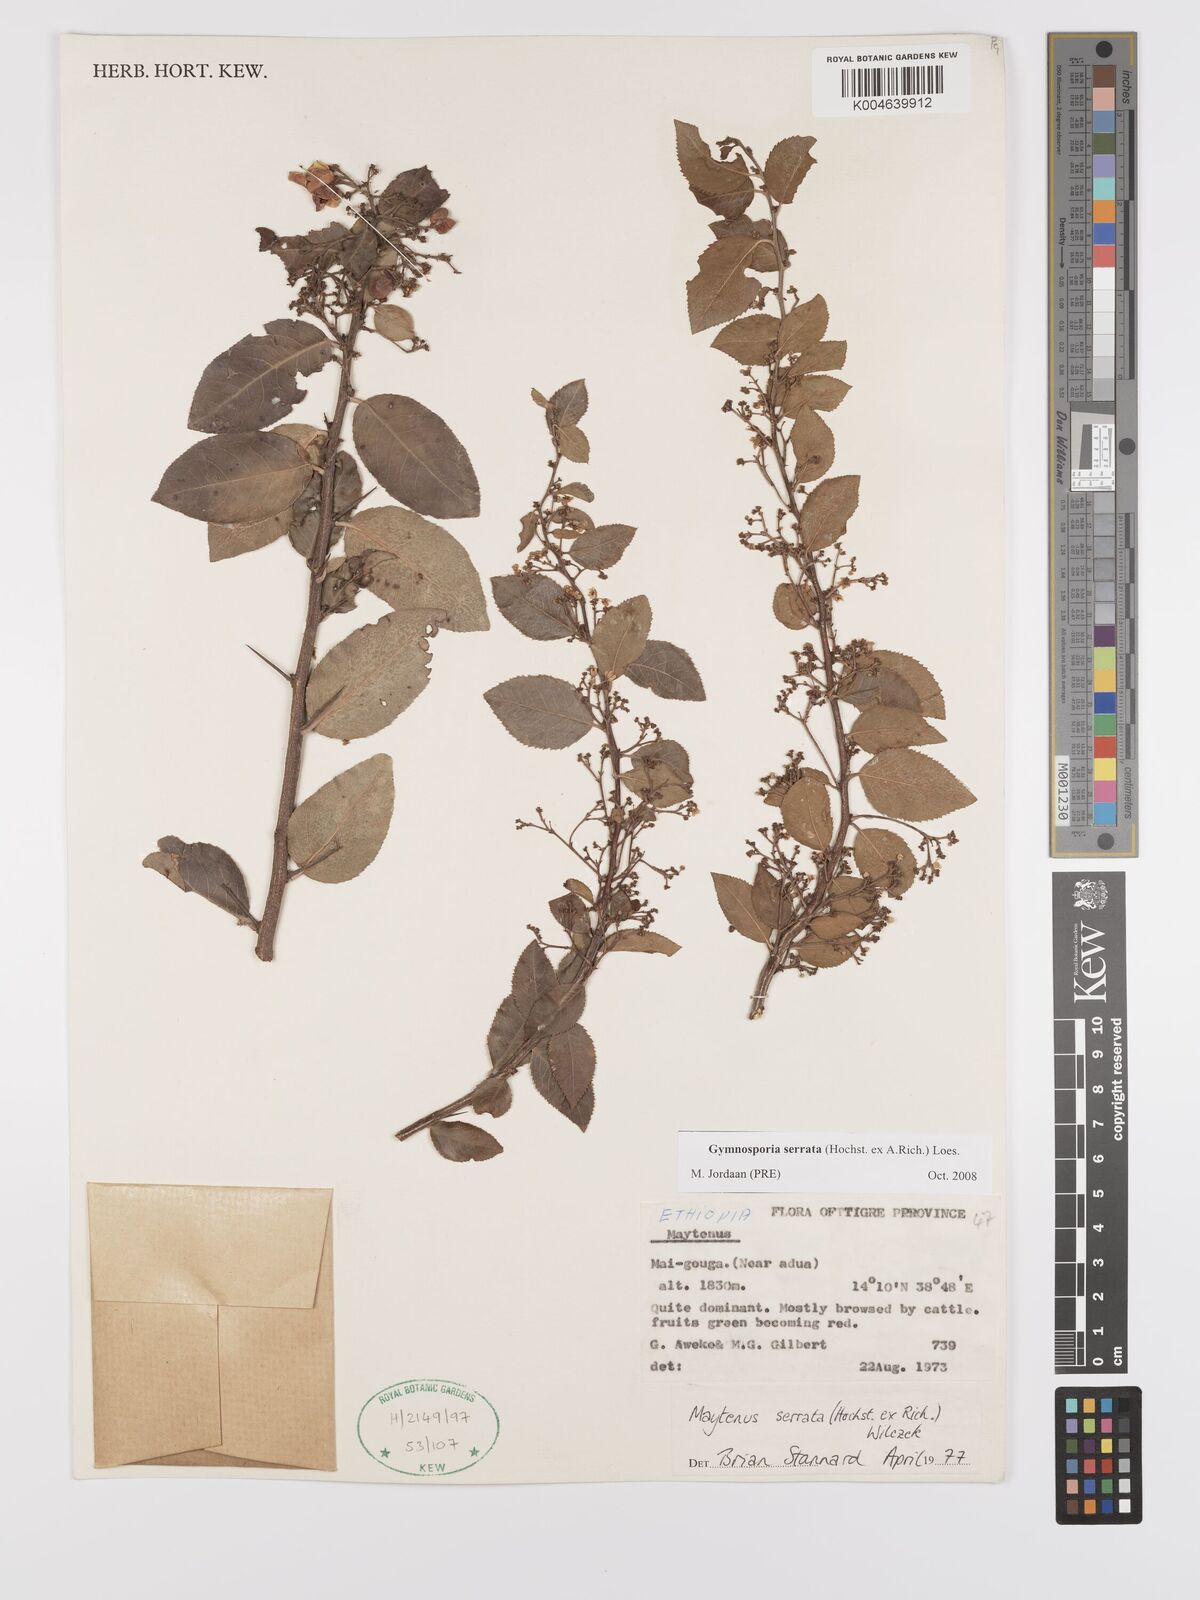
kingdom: Plantae
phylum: Tracheophyta
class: Magnoliopsida
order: Celastrales
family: Celastraceae
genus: Gymnosporia
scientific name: Gymnosporia serrata
